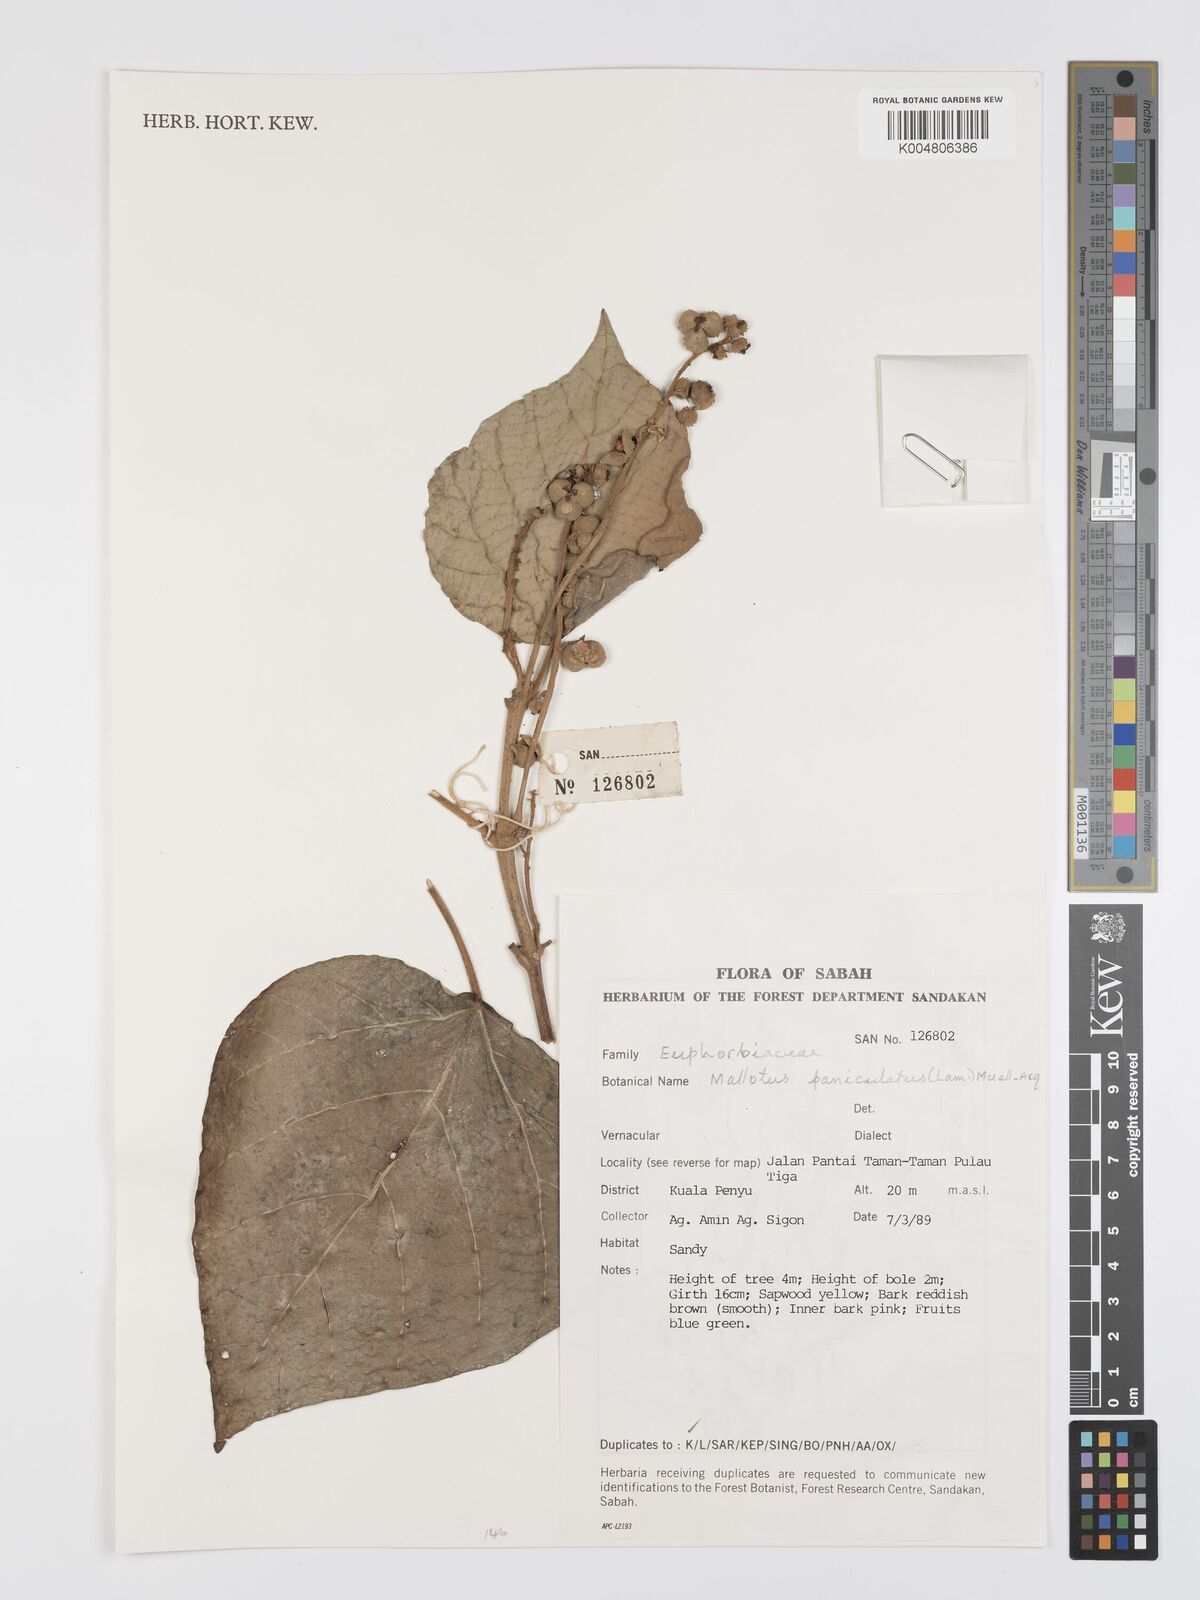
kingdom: Plantae
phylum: Tracheophyta
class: Magnoliopsida
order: Malpighiales
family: Euphorbiaceae
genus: Mallotus
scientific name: Mallotus paniculatus
